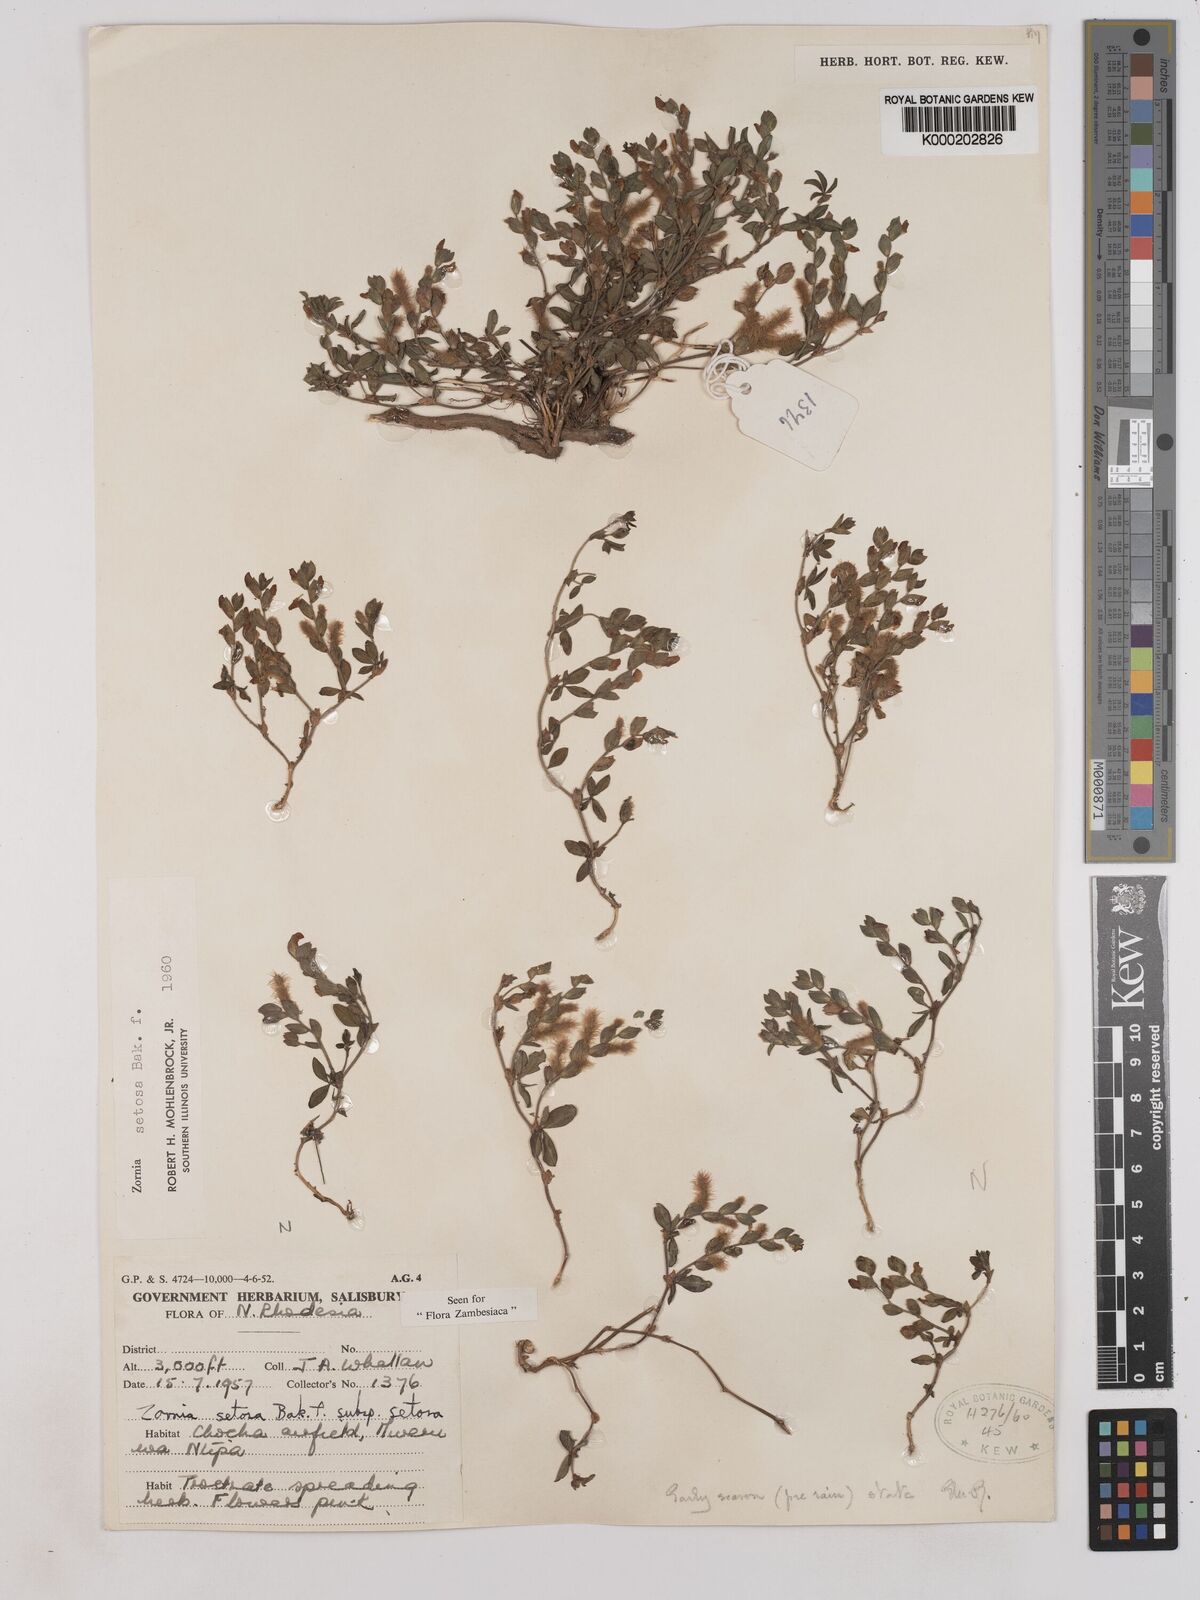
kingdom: Plantae
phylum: Tracheophyta
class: Magnoliopsida
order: Fabales
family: Fabaceae
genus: Zornia
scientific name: Zornia setosa
